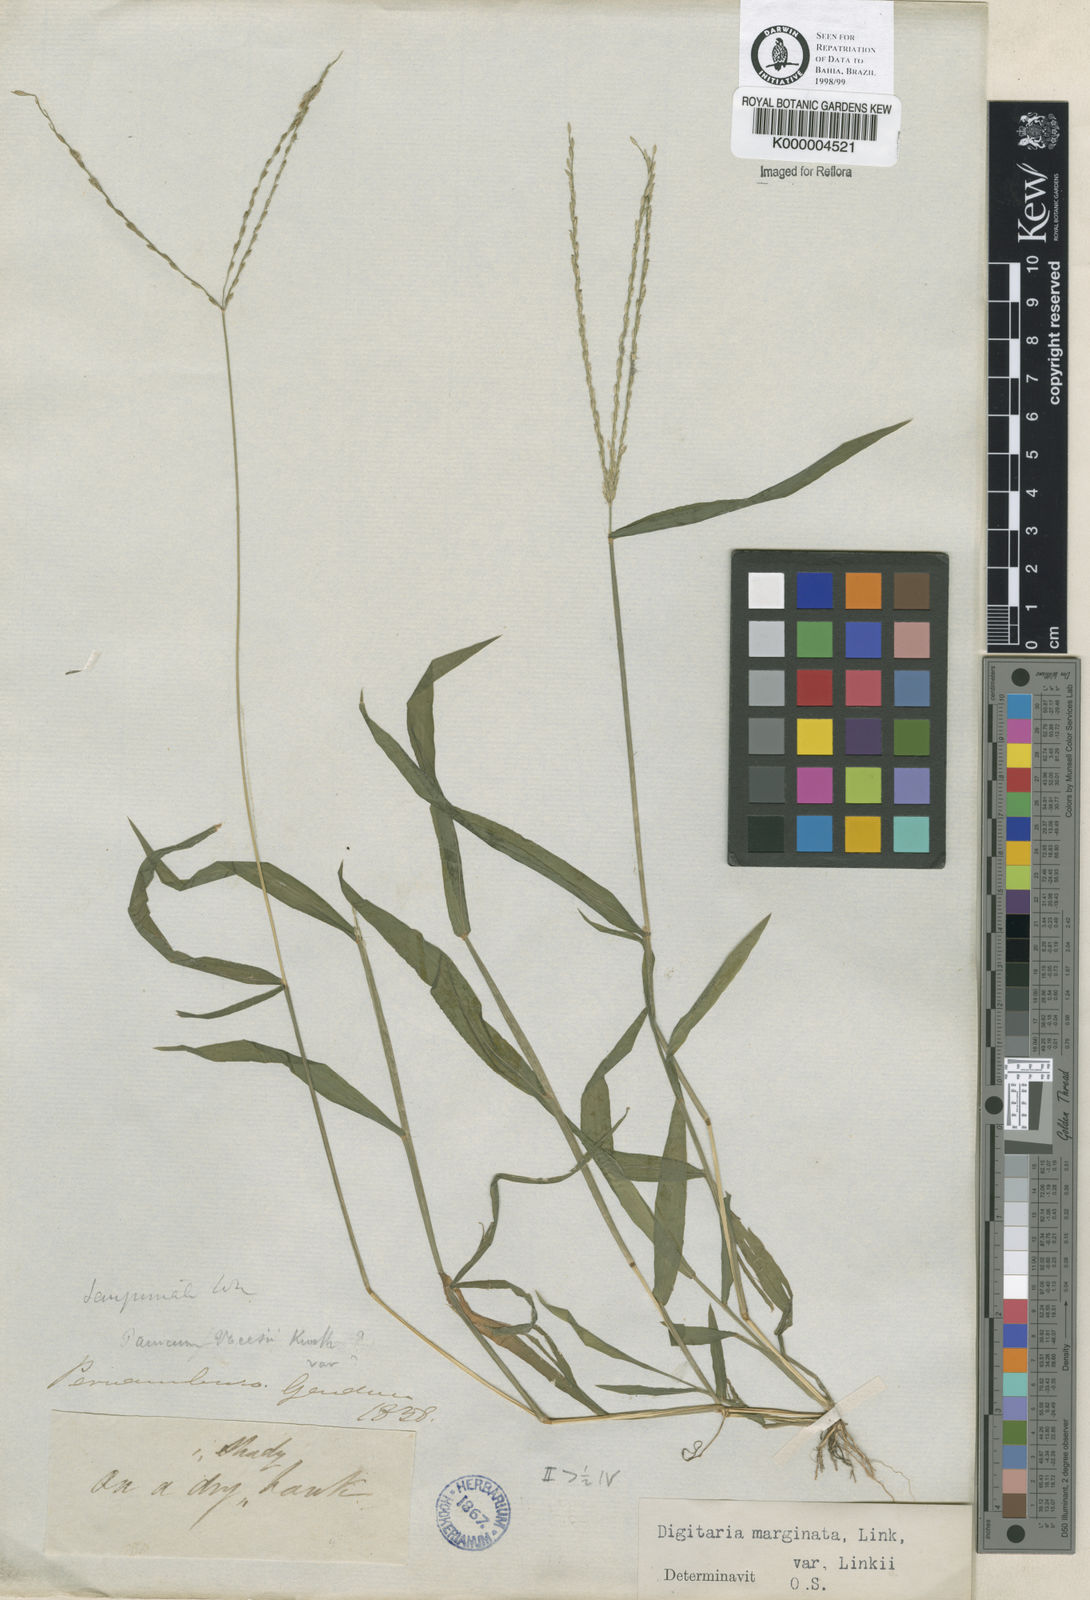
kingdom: Plantae
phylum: Tracheophyta
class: Liliopsida
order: Poales
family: Poaceae
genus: Digitaria
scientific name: Digitaria ciliaris
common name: Tropical finger-grass
